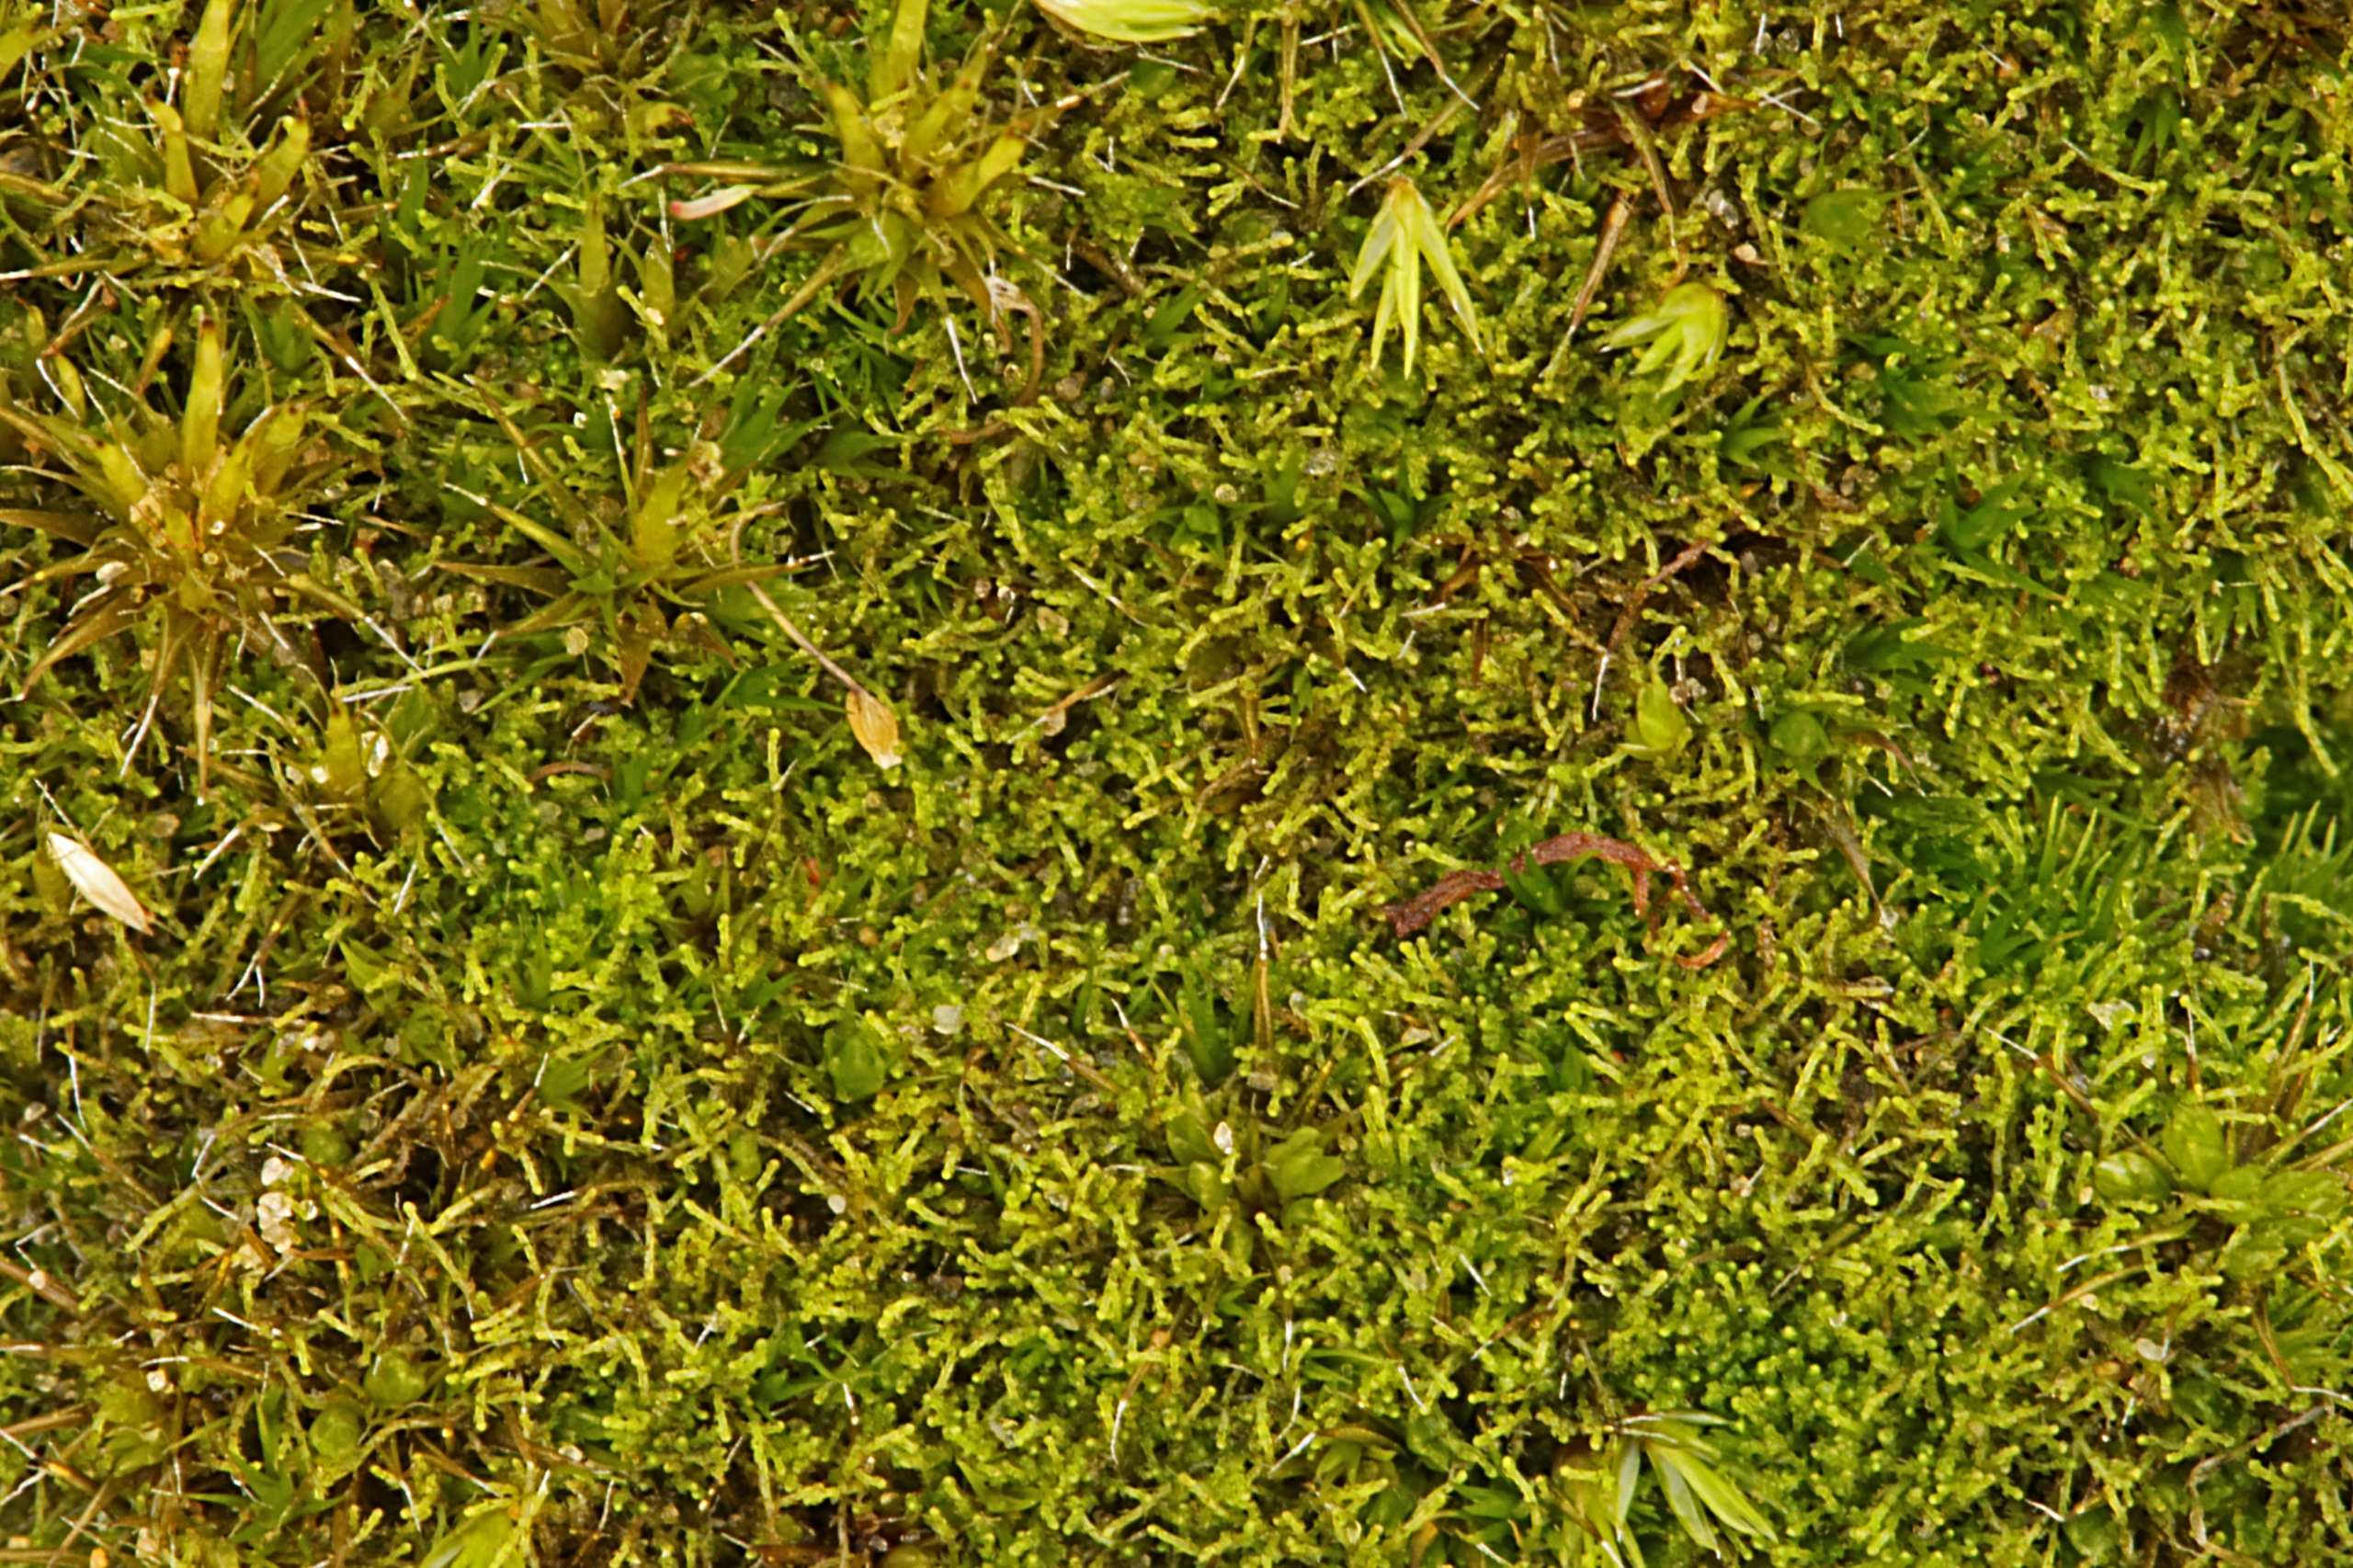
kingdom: Plantae
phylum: Marchantiophyta
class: Jungermanniopsida
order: Jungermanniales
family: Cephaloziellaceae
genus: Cephaloziella
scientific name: Cephaloziella divaricata
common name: Mørk dværgtråd
